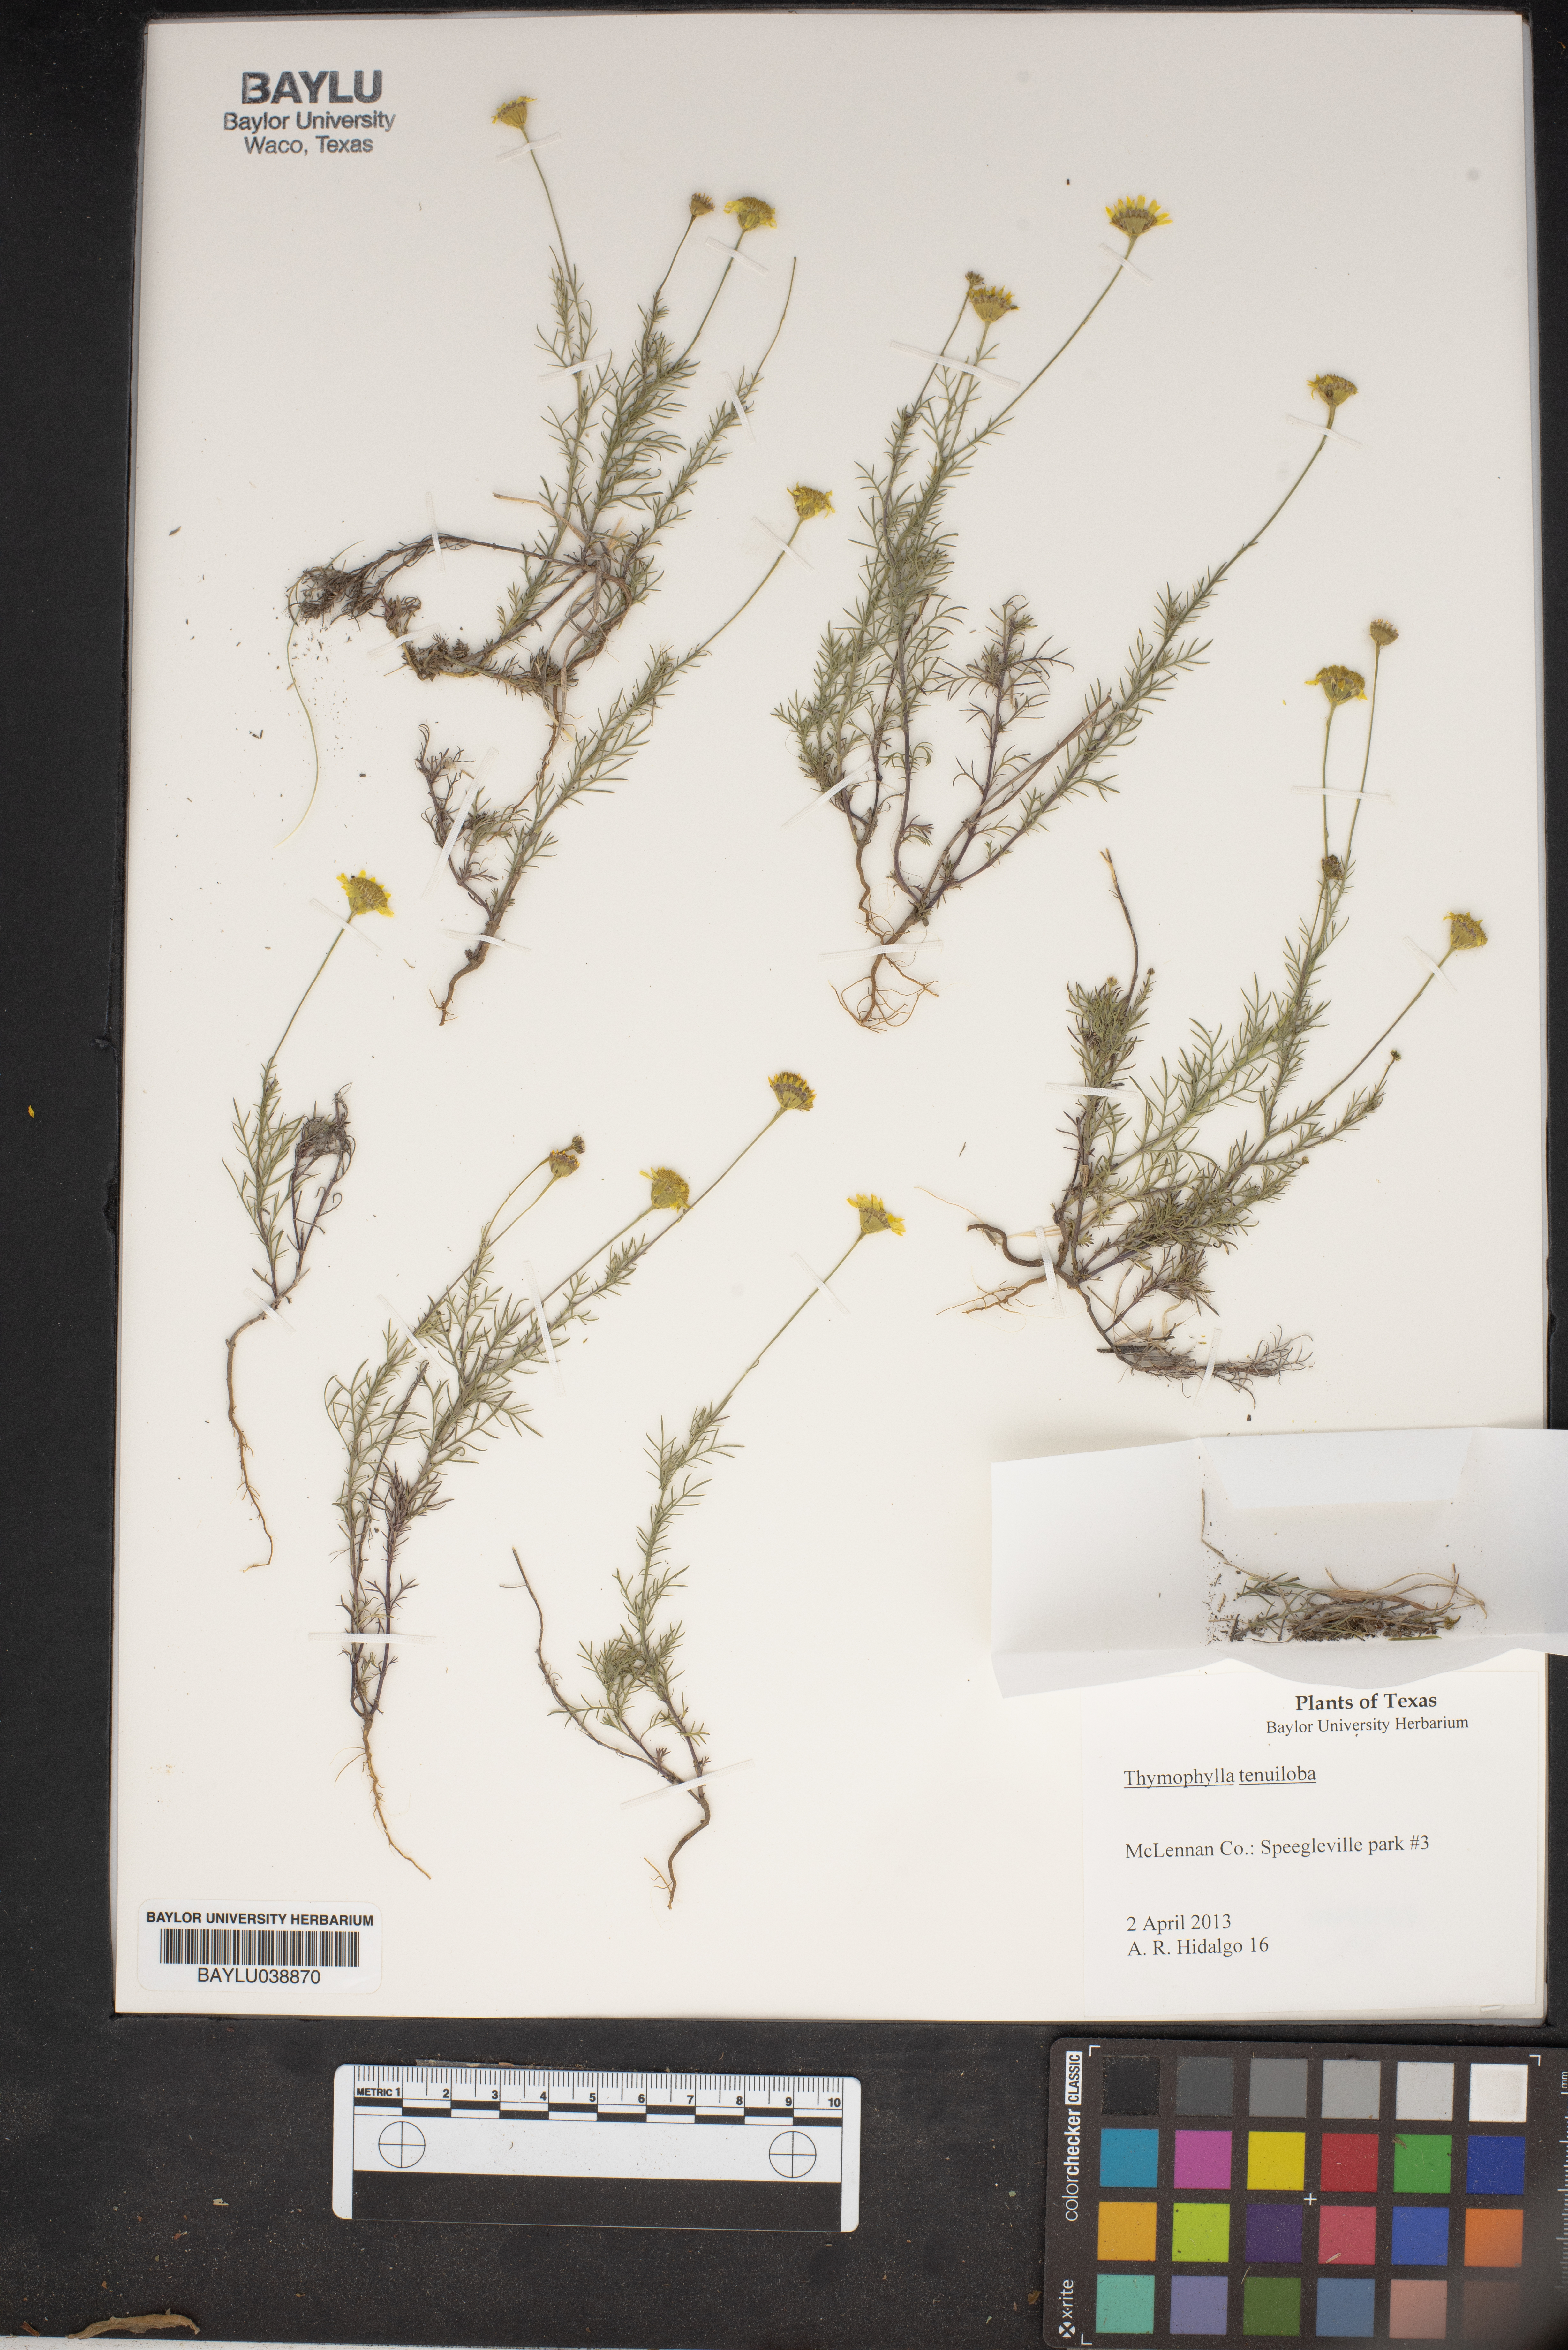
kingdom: Plantae
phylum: Tracheophyta
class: Magnoliopsida
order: Asterales
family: Asteraceae
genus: Thymophylla
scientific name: Thymophylla tenuiloba
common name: Dahlberg's daisy
